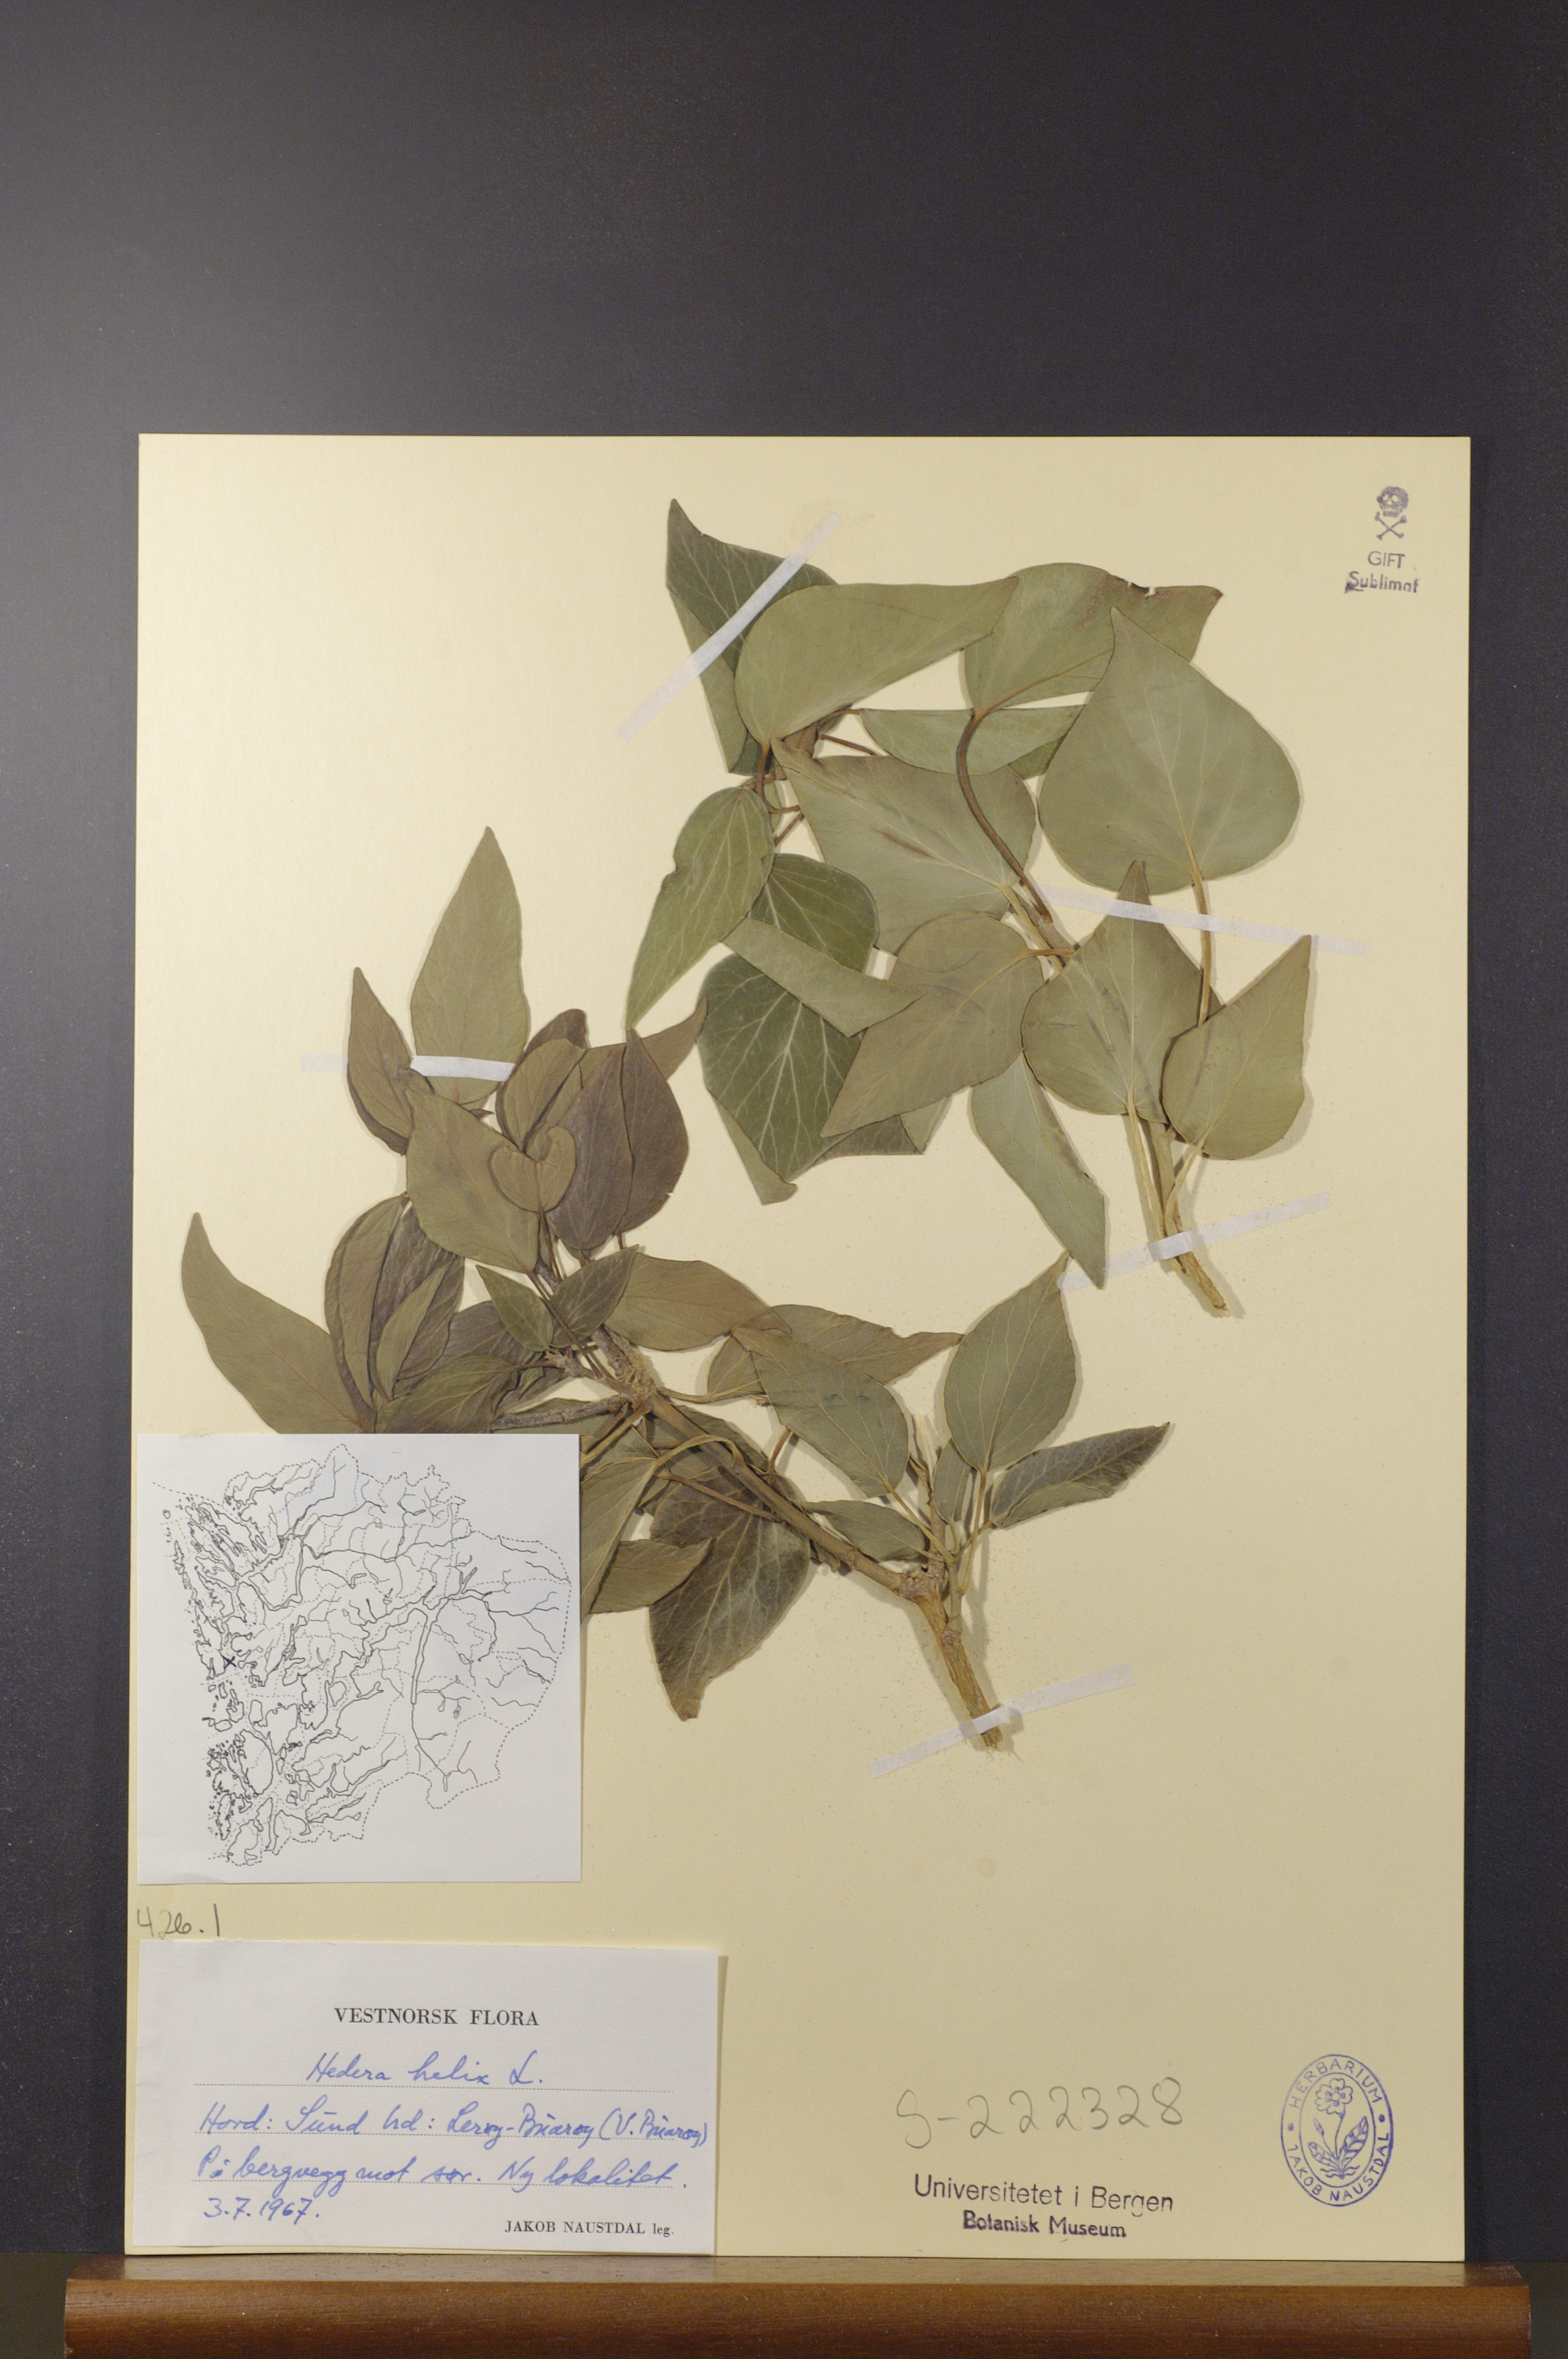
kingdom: Plantae
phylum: Tracheophyta
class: Magnoliopsida
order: Apiales
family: Araliaceae
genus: Hedera
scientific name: Hedera helix
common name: Ivy
